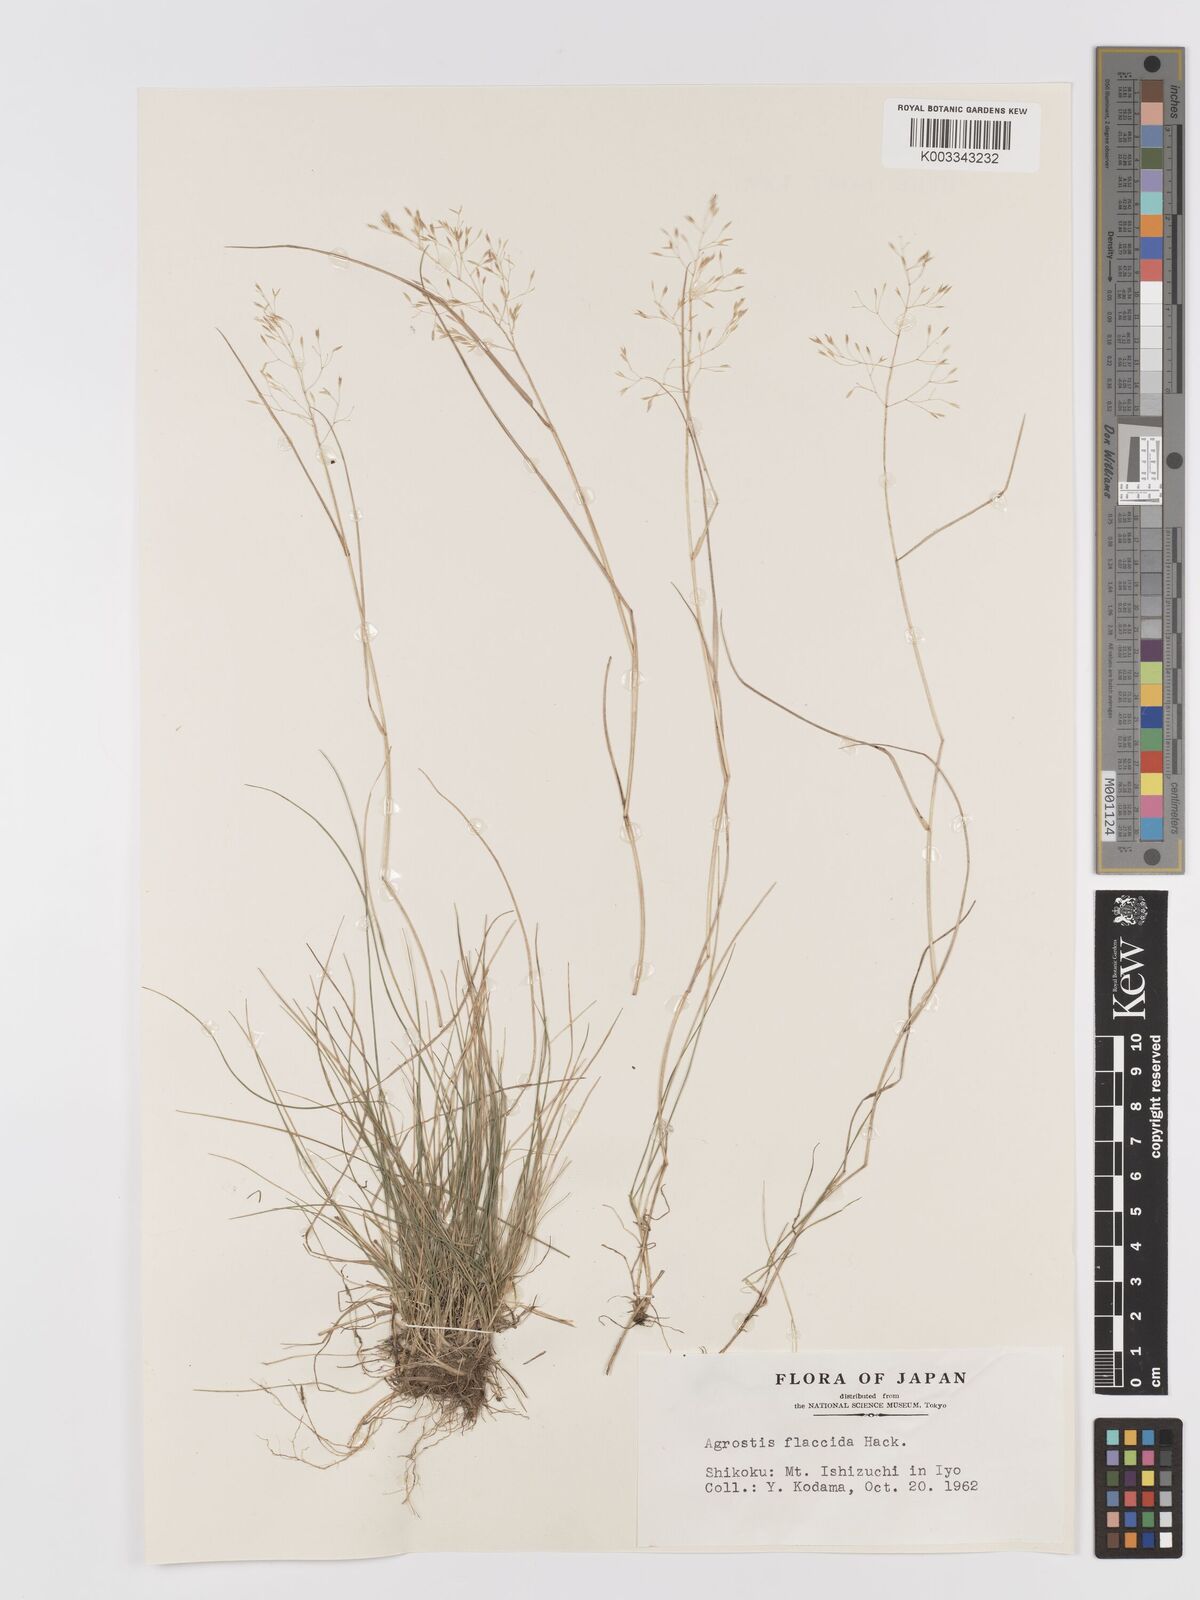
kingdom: Plantae
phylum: Tracheophyta
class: Liliopsida
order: Poales
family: Poaceae
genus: Agrostis
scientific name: Agrostis flaccida
